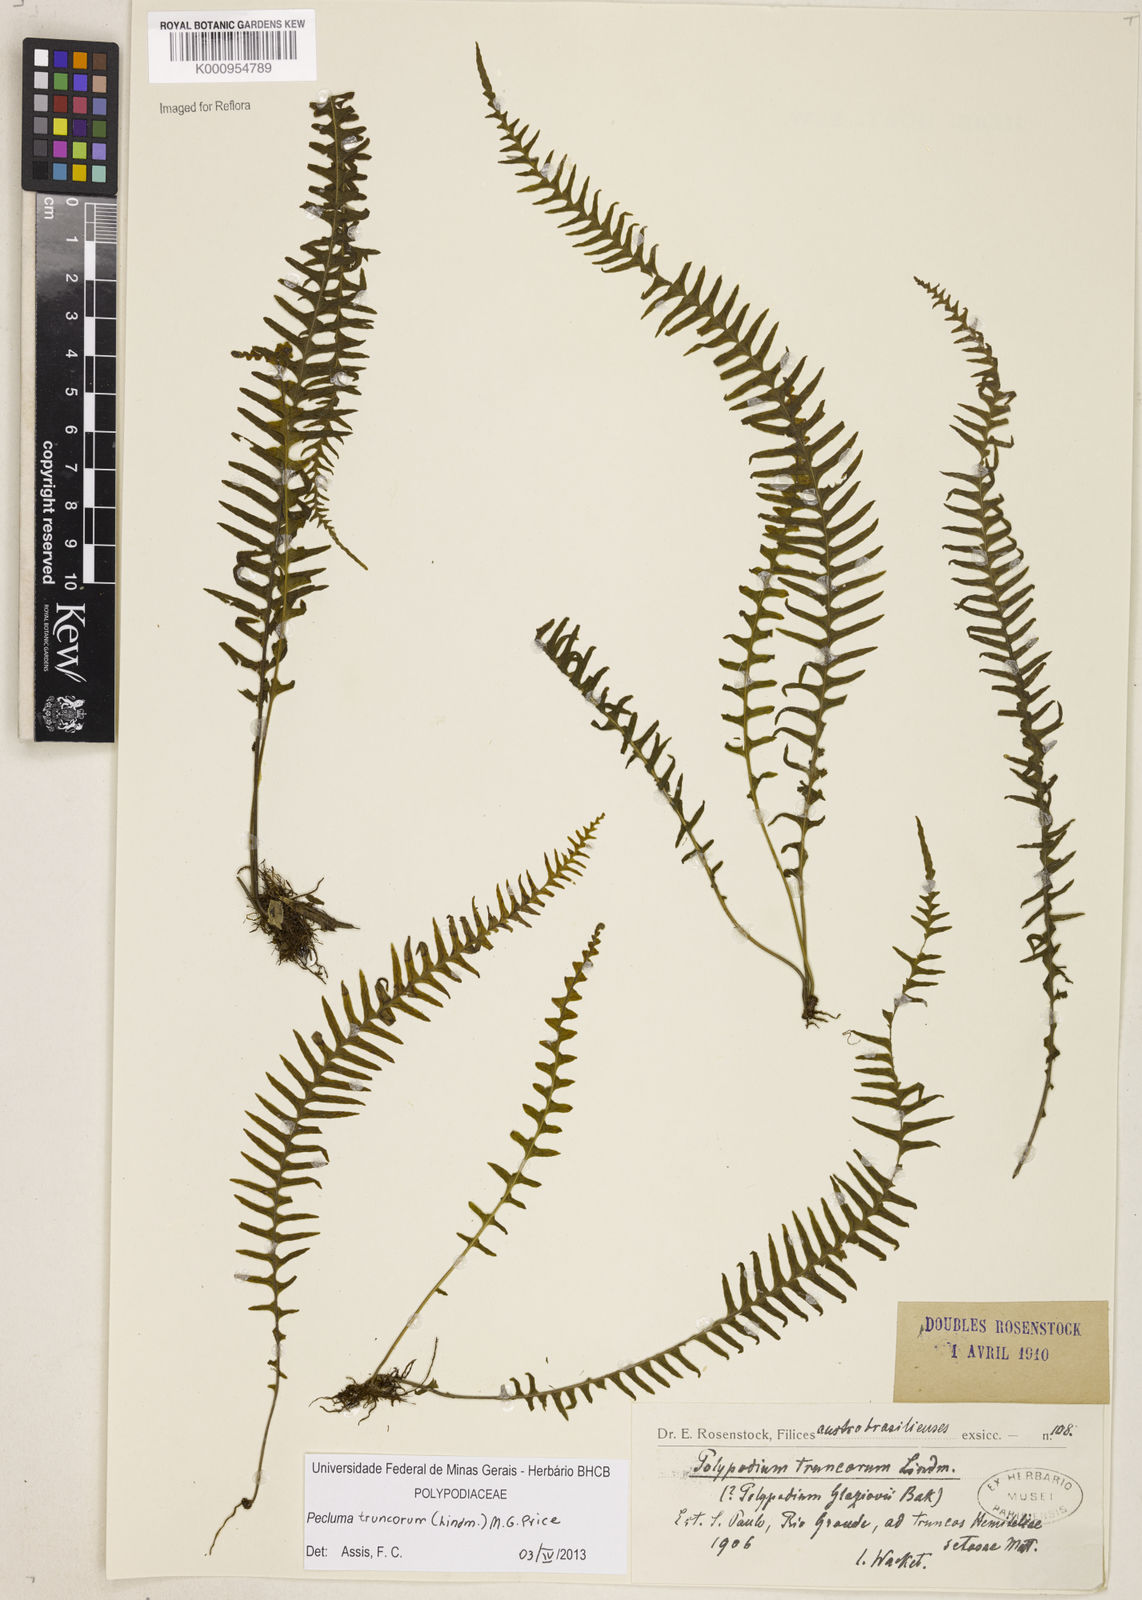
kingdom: Plantae
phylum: Tracheophyta
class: Polypodiopsida
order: Polypodiales
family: Polypodiaceae
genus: Pecluma
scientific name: Pecluma truncorum
